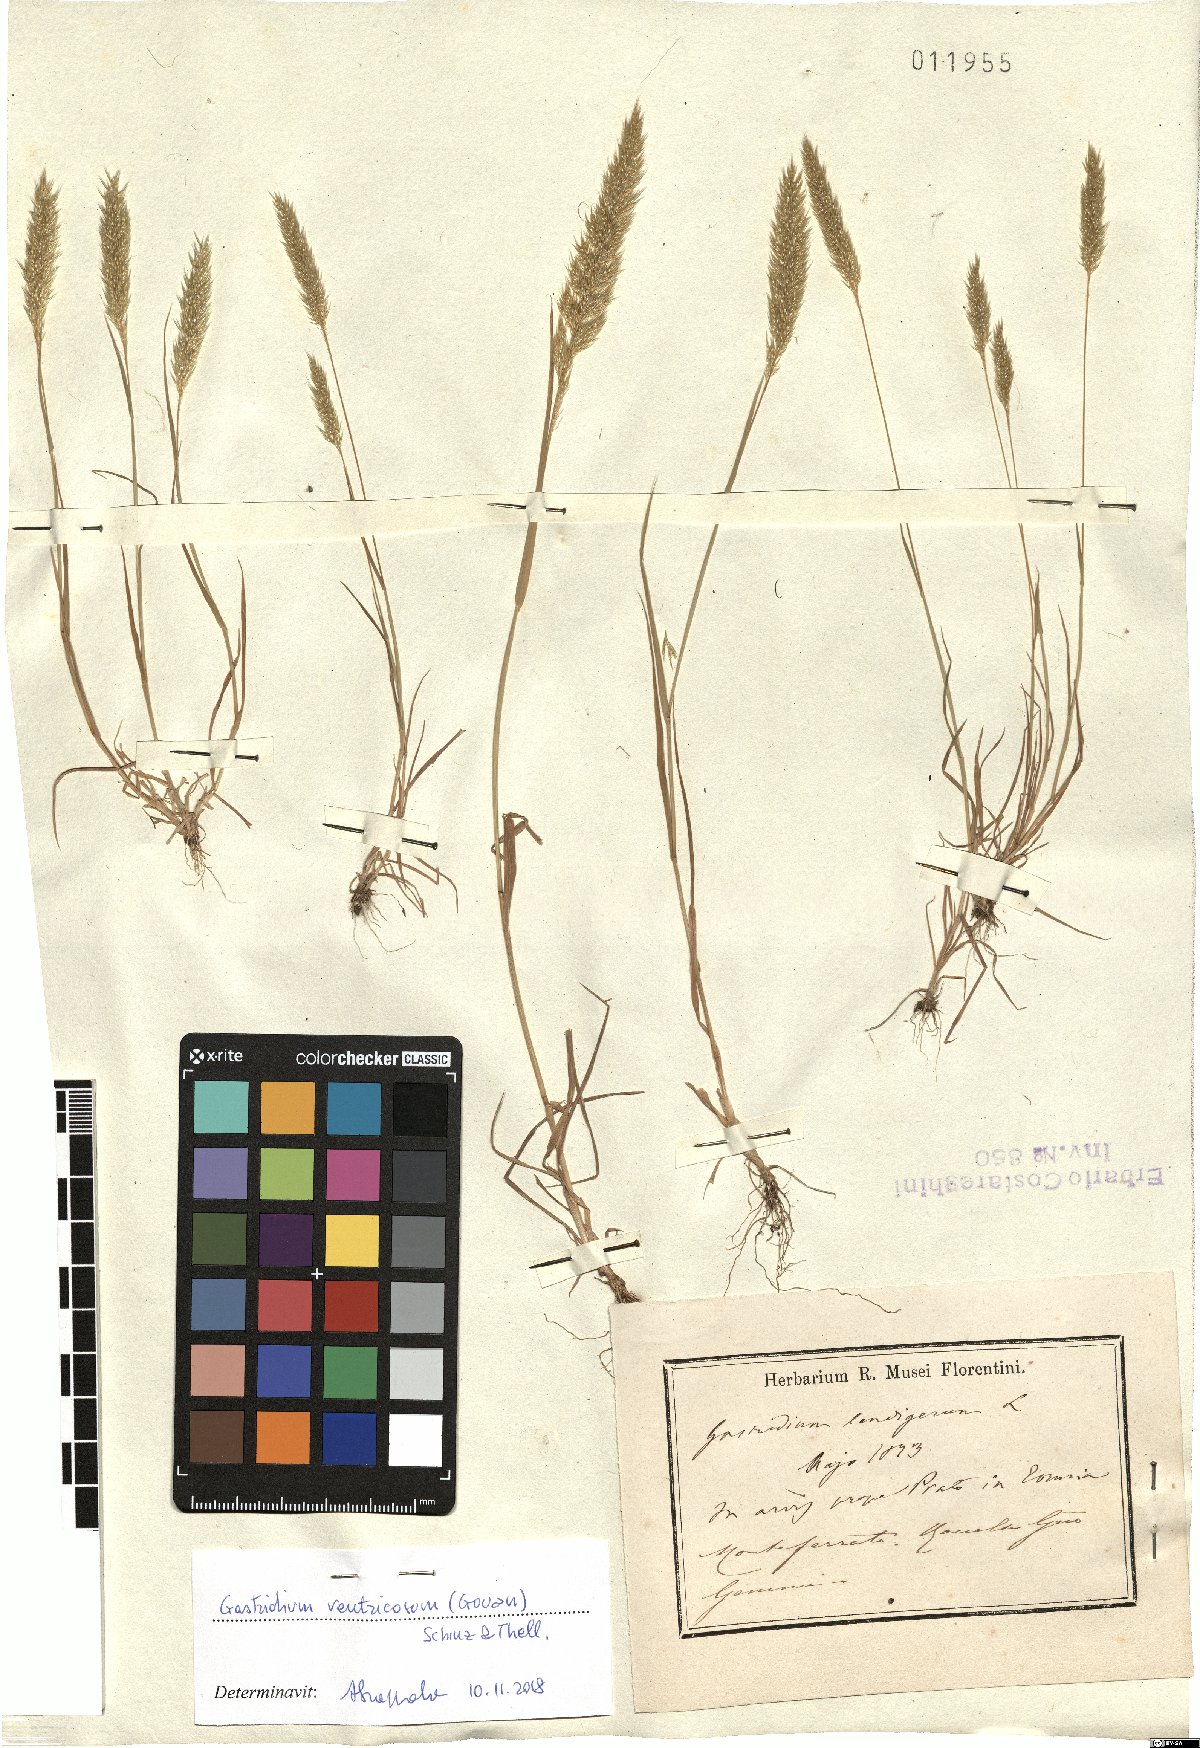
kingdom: Plantae
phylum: Tracheophyta
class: Liliopsida
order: Poales
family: Poaceae
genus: Gastridium
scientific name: Gastridium ventricosum
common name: Nit-grass
